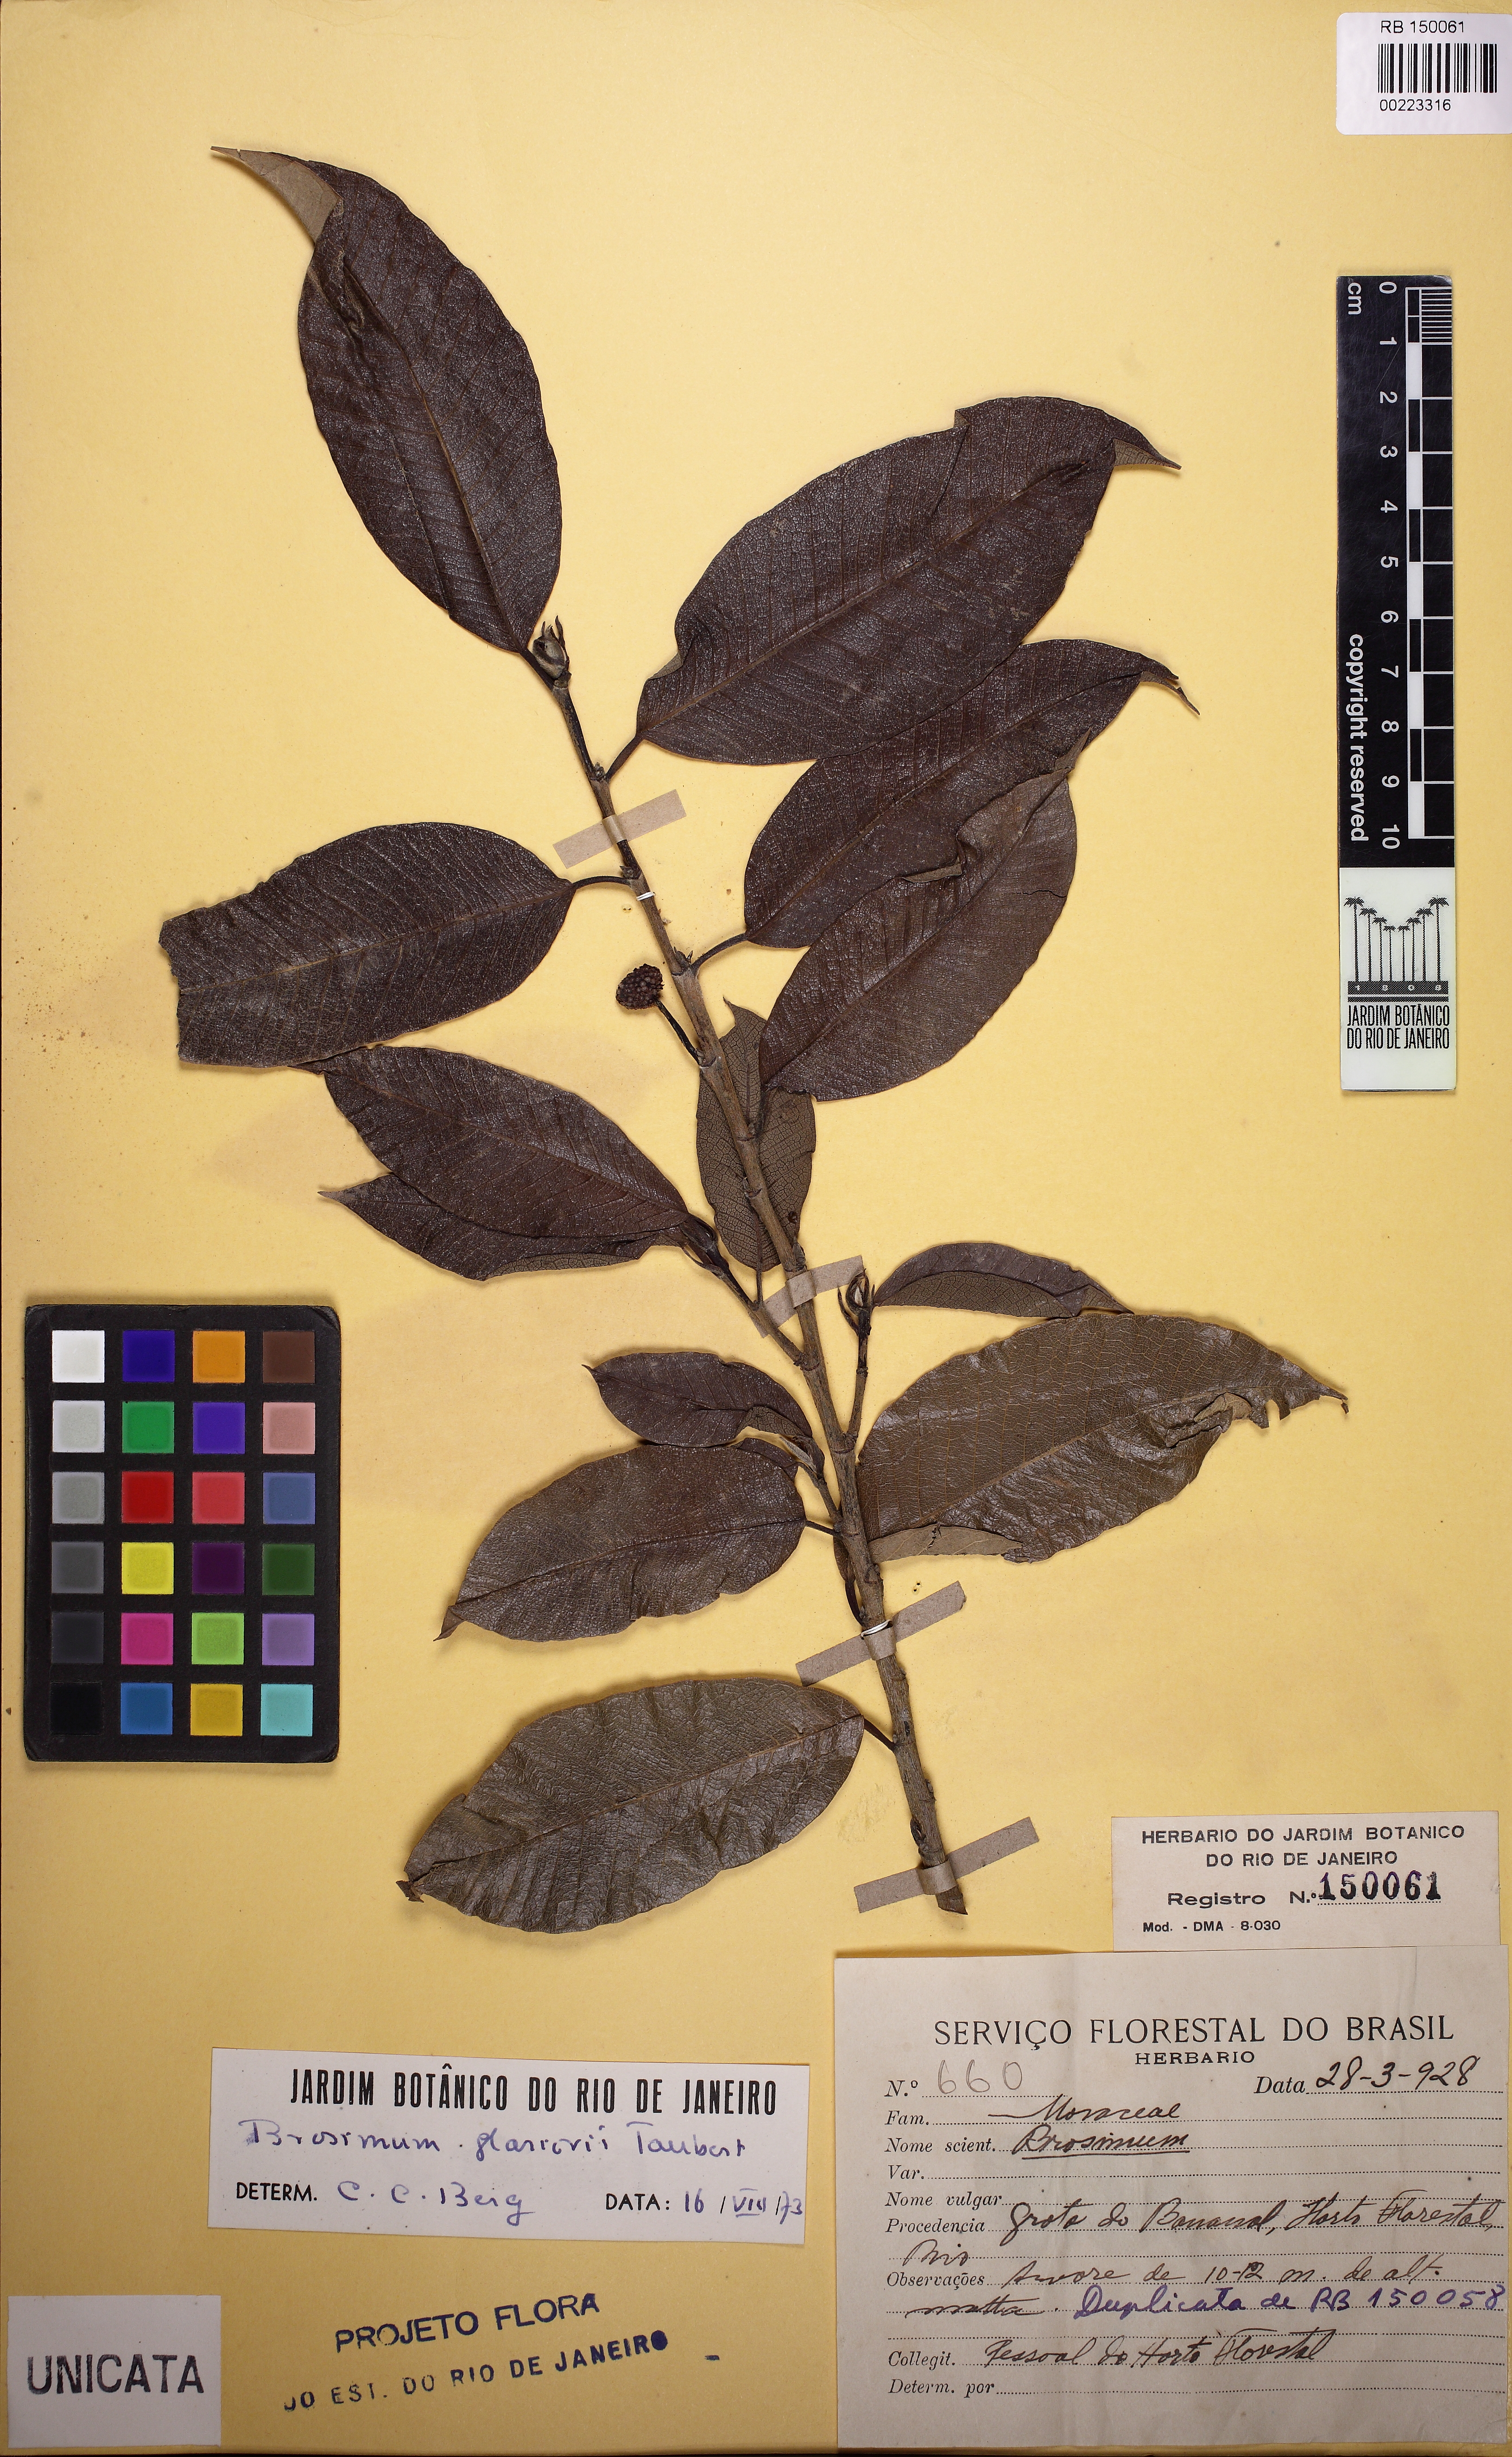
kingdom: Plantae
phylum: Tracheophyta
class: Magnoliopsida
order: Rosales
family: Moraceae
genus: Brosimum
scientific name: Brosimum glaziovii
